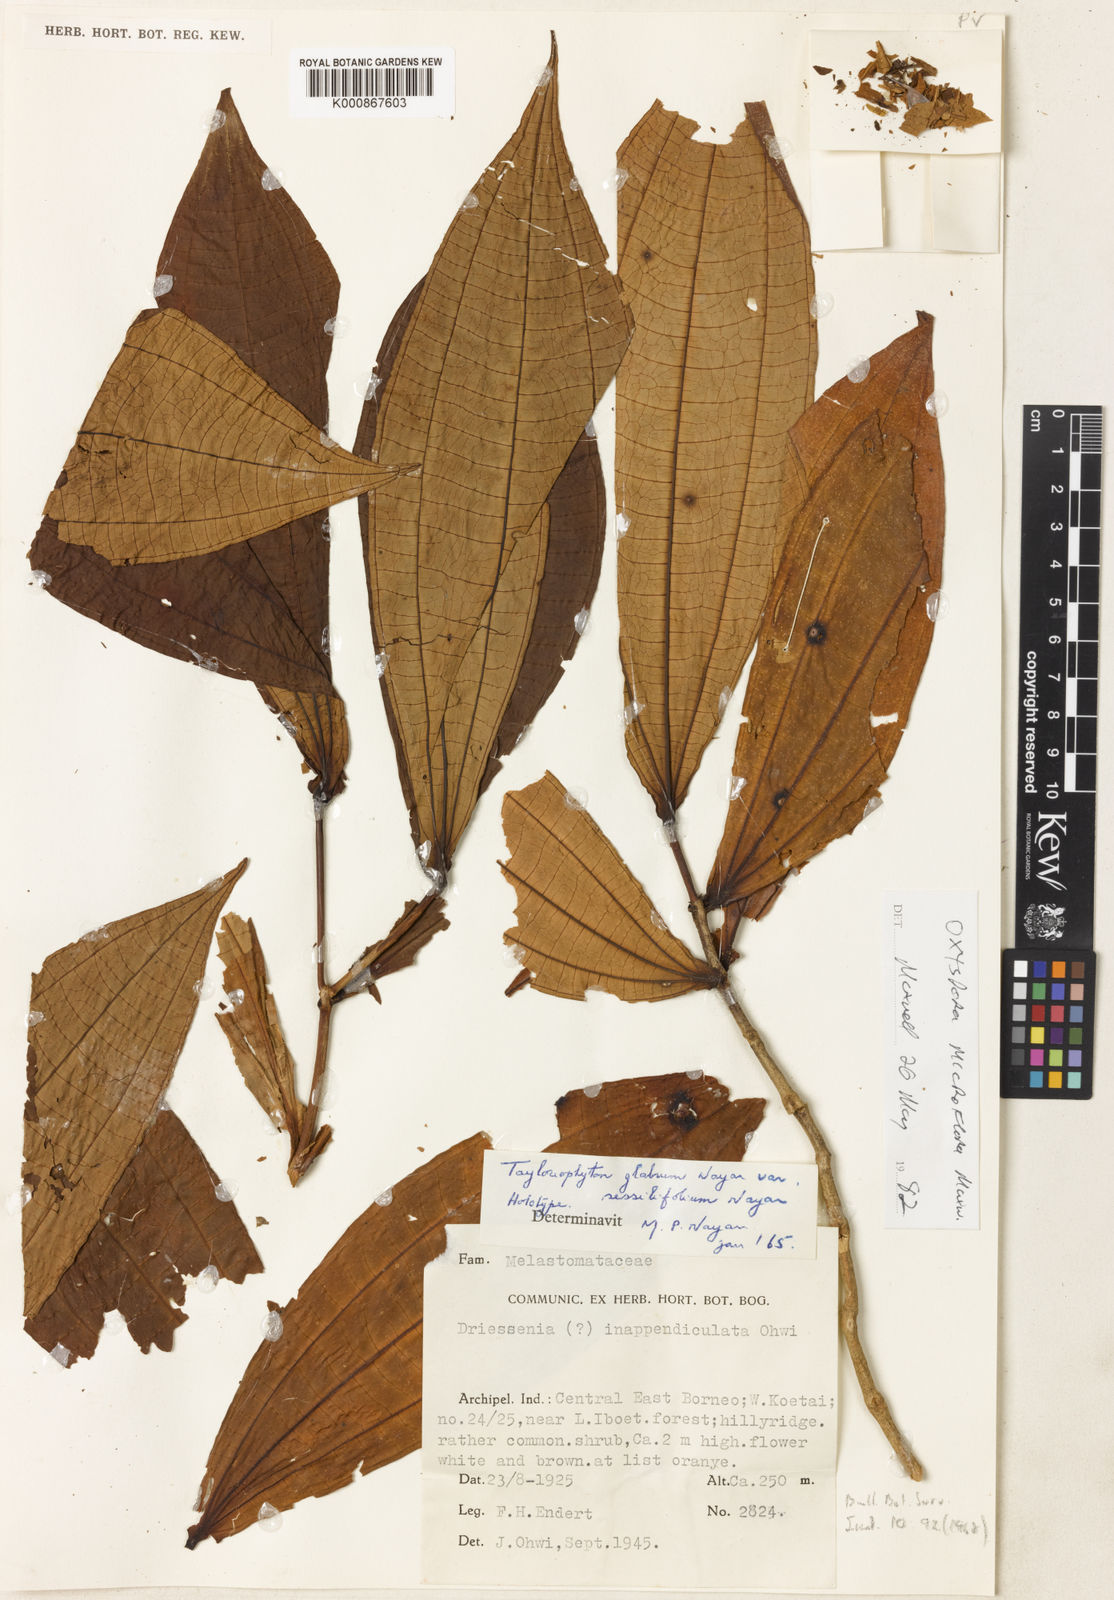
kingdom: Plantae
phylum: Tracheophyta
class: Magnoliopsida
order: Myrtales
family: Melastomataceae
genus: Tayloriophyton
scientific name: Tayloriophyton glabrum
